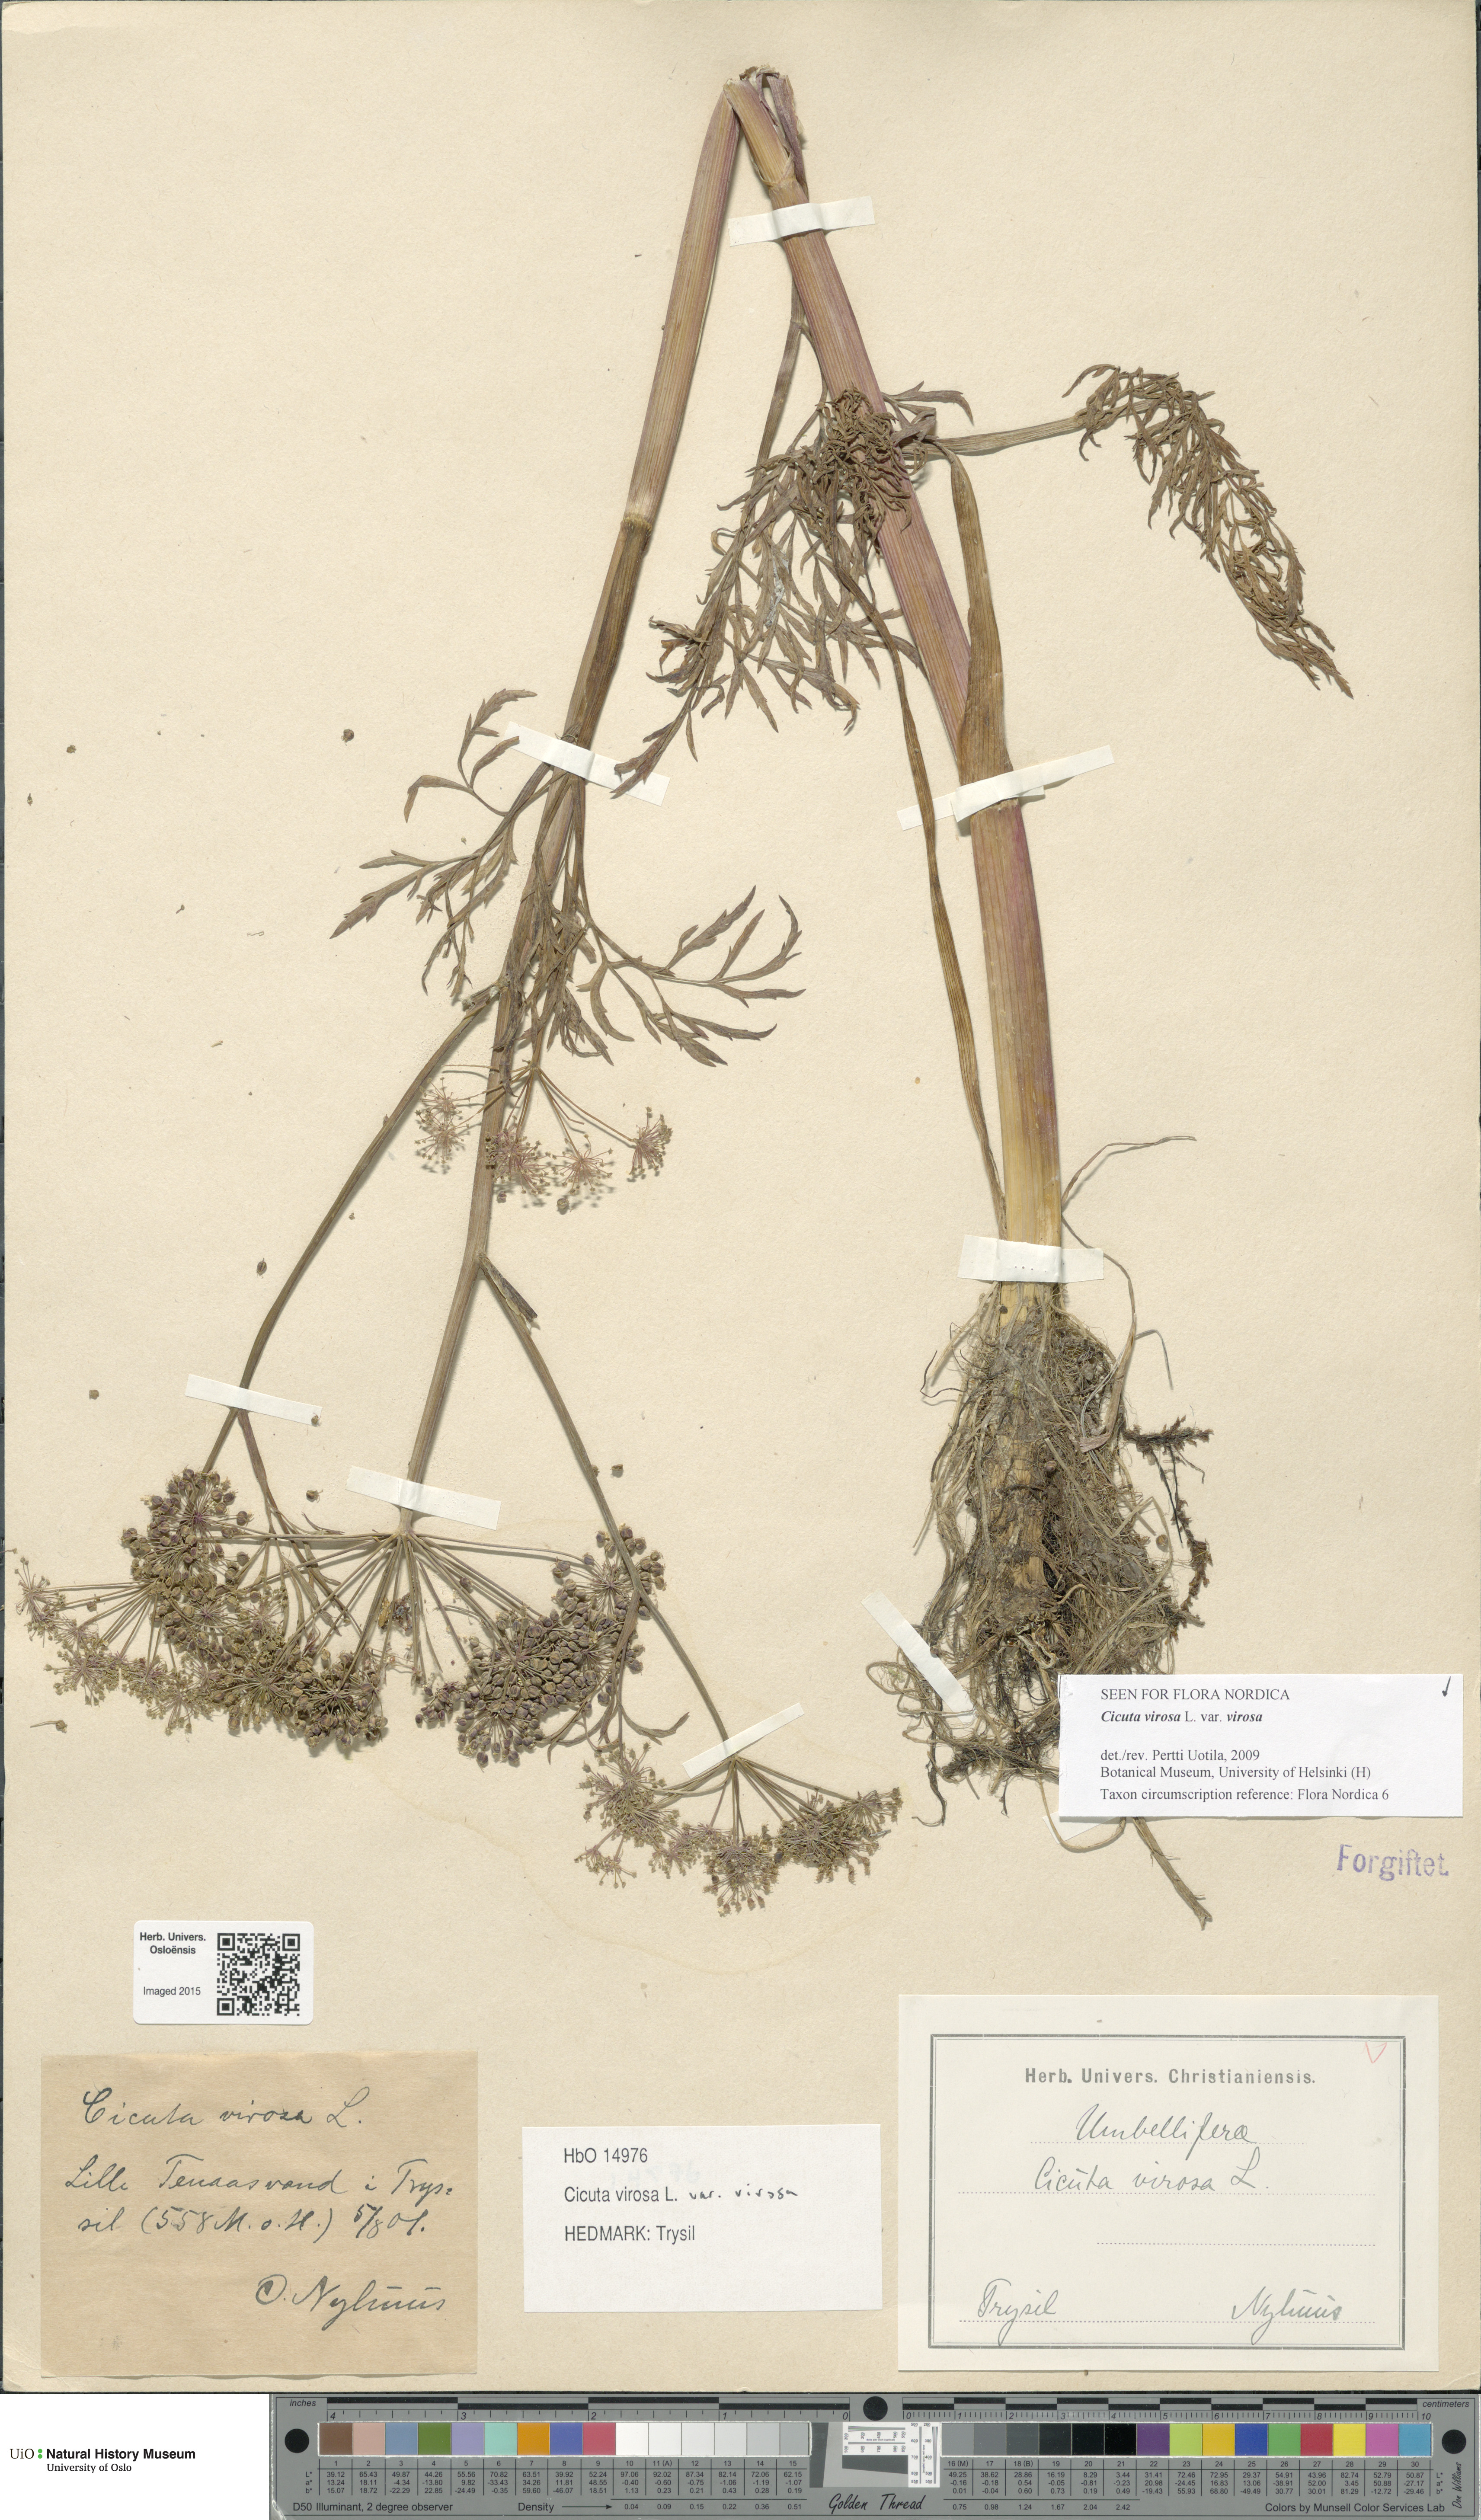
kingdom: Plantae
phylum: Tracheophyta
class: Magnoliopsida
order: Apiales
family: Apiaceae
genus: Cicuta
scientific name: Cicuta virosa
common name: Cowbane
